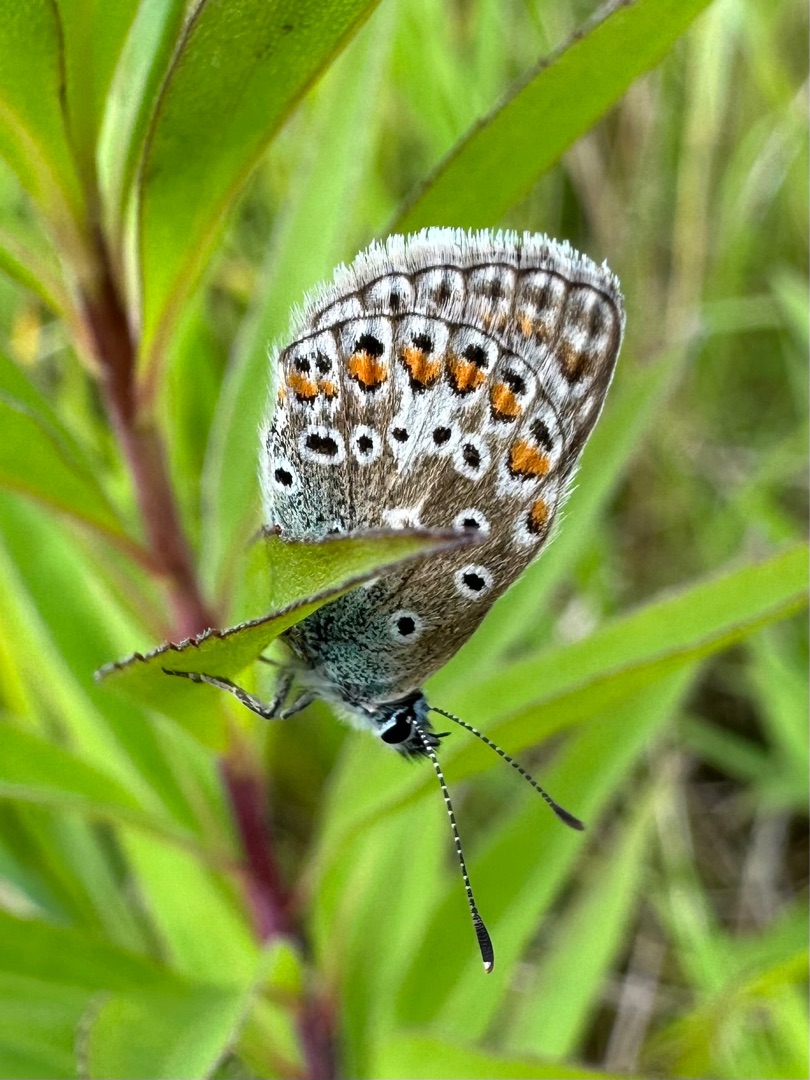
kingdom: Animalia
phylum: Arthropoda
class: Insecta
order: Lepidoptera
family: Lycaenidae
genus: Polyommatus
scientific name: Polyommatus icarus
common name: Almindelig blåfugl
